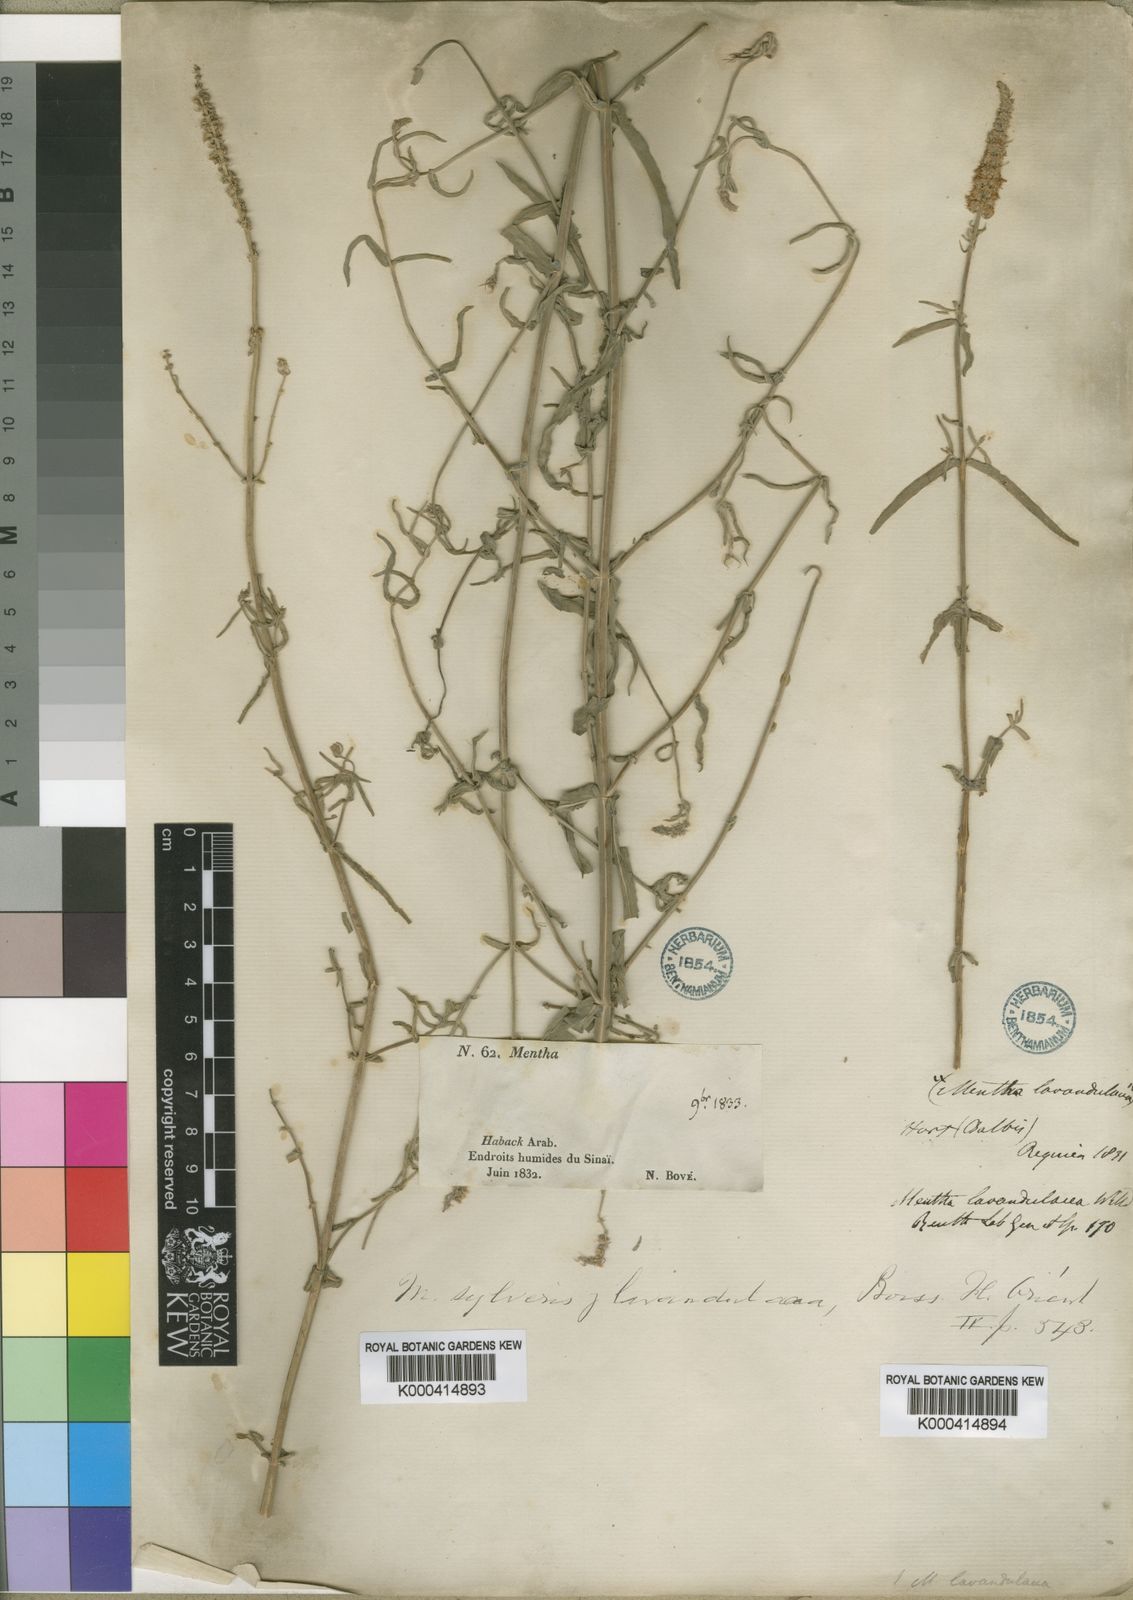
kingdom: Plantae
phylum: Tracheophyta
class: Magnoliopsida
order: Lamiales
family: Lamiaceae
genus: Mentha
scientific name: Mentha longifolia
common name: Horse mint
